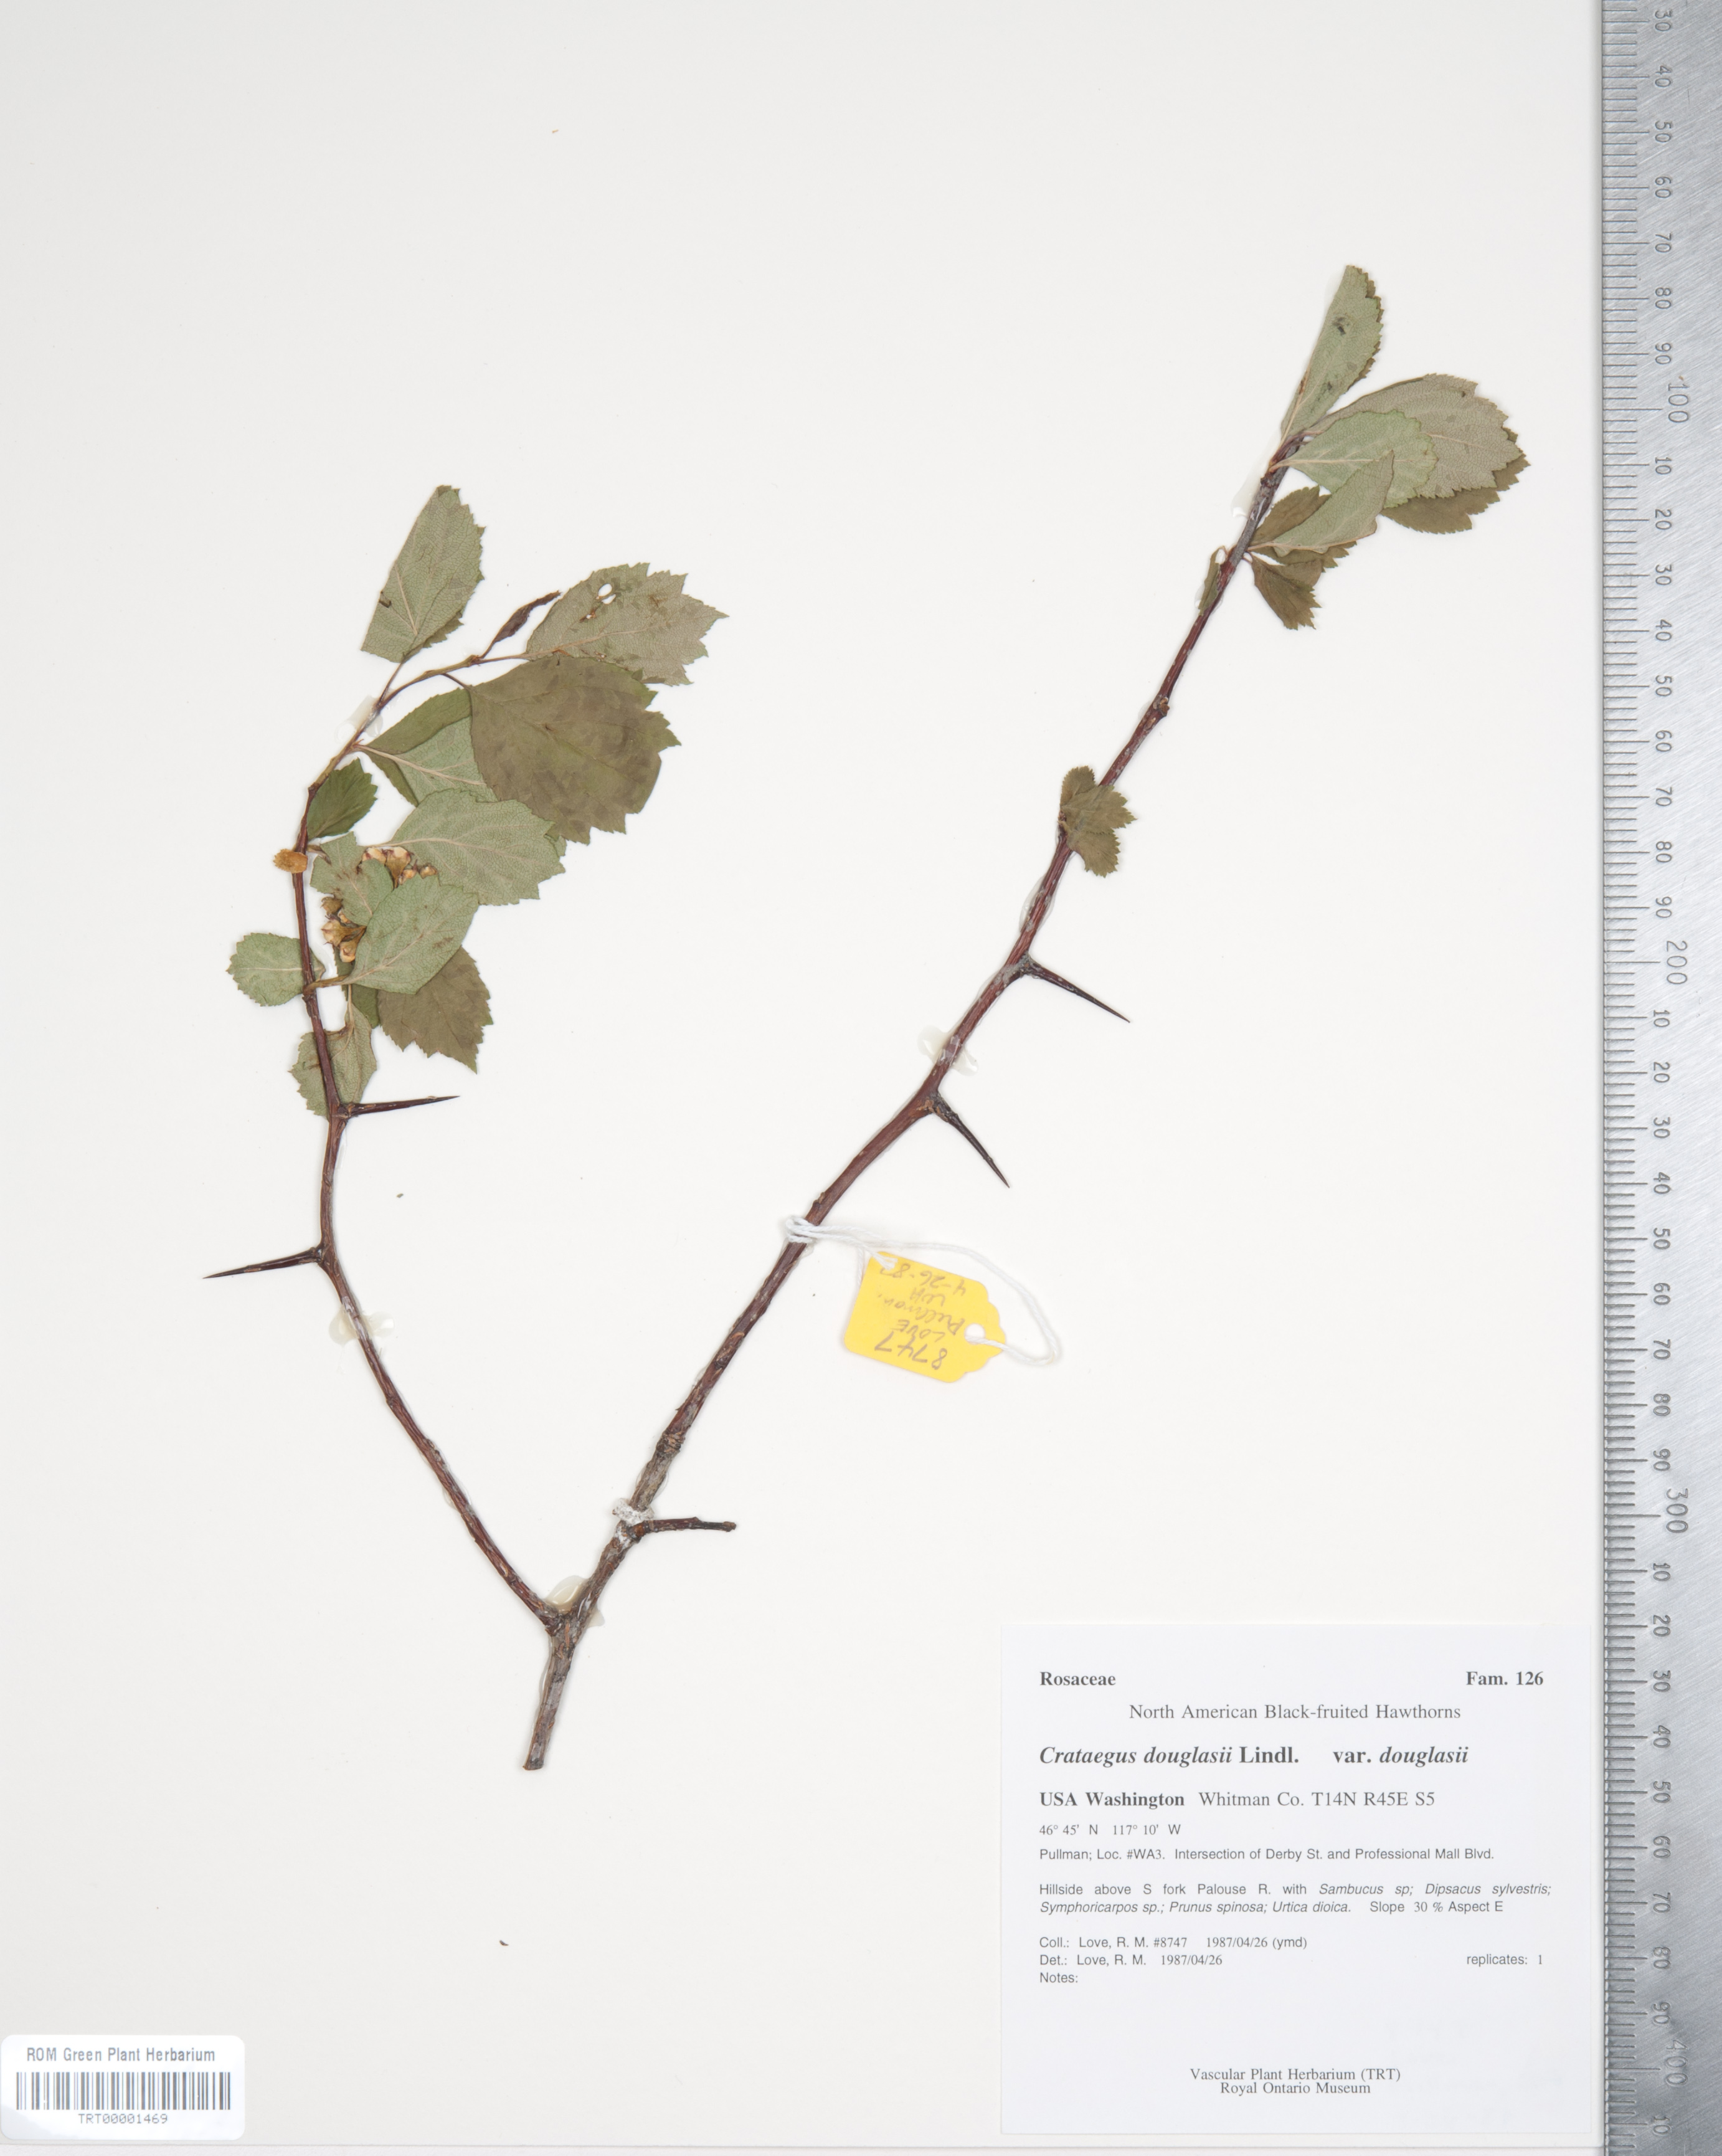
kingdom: Plantae
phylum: Tracheophyta
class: Magnoliopsida
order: Rosales
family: Rosaceae
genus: Crataegus
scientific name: Crataegus douglasii
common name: Black hawthorn
